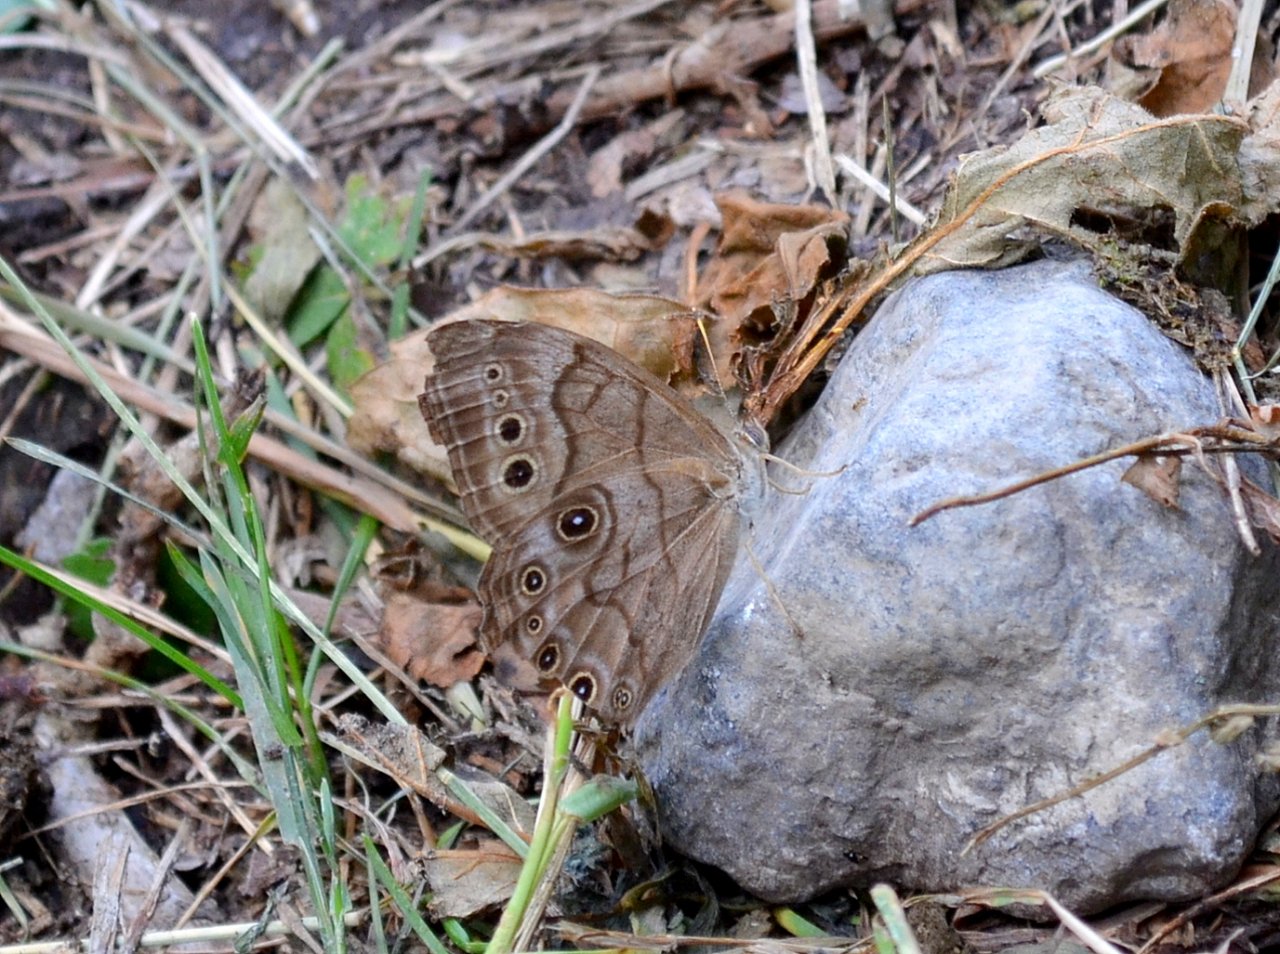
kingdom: Animalia
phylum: Arthropoda
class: Insecta
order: Lepidoptera
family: Nymphalidae
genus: Lethe
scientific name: Lethe anthedon
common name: Northern Pearly-Eye
